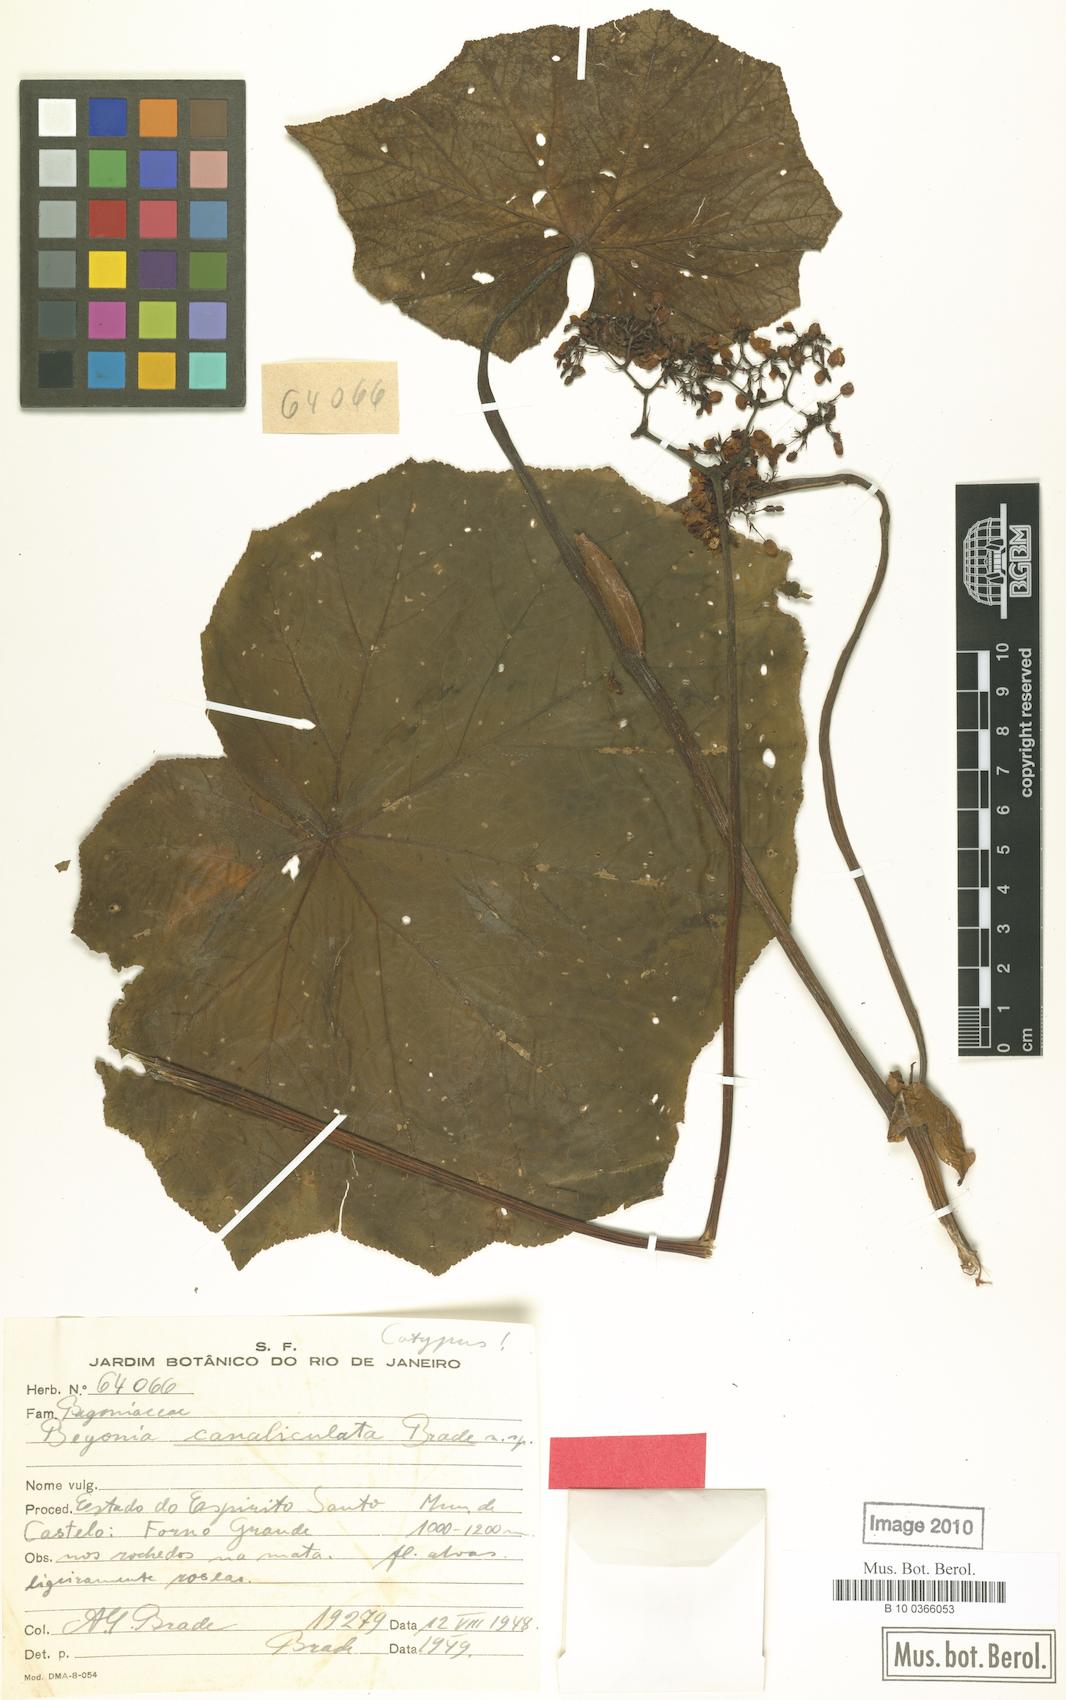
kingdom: Plantae
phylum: Tracheophyta
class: Magnoliopsida
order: Cucurbitales
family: Begoniaceae
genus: Begonia
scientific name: Begonia sylvatica
